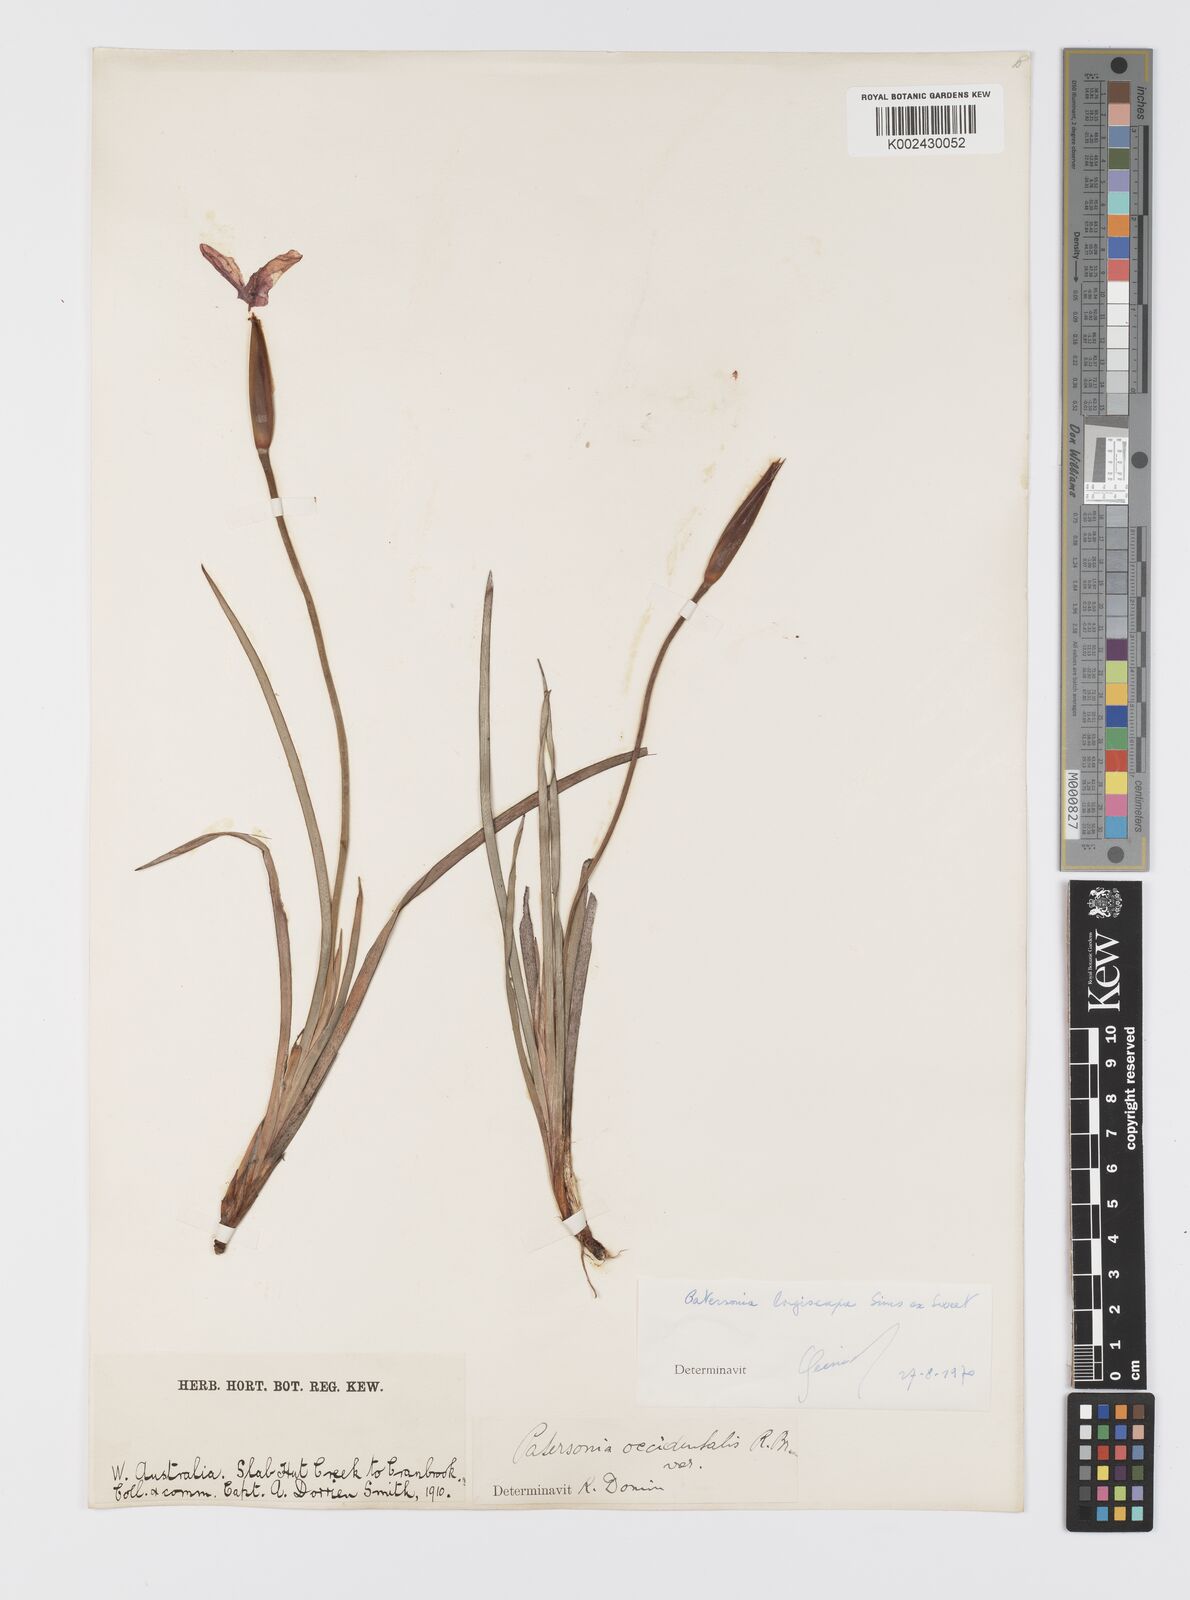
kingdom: Plantae
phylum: Tracheophyta
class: Liliopsida
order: Asparagales
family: Iridaceae
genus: Patersonia
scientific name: Patersonia occidentalis
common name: Long purple-flag
